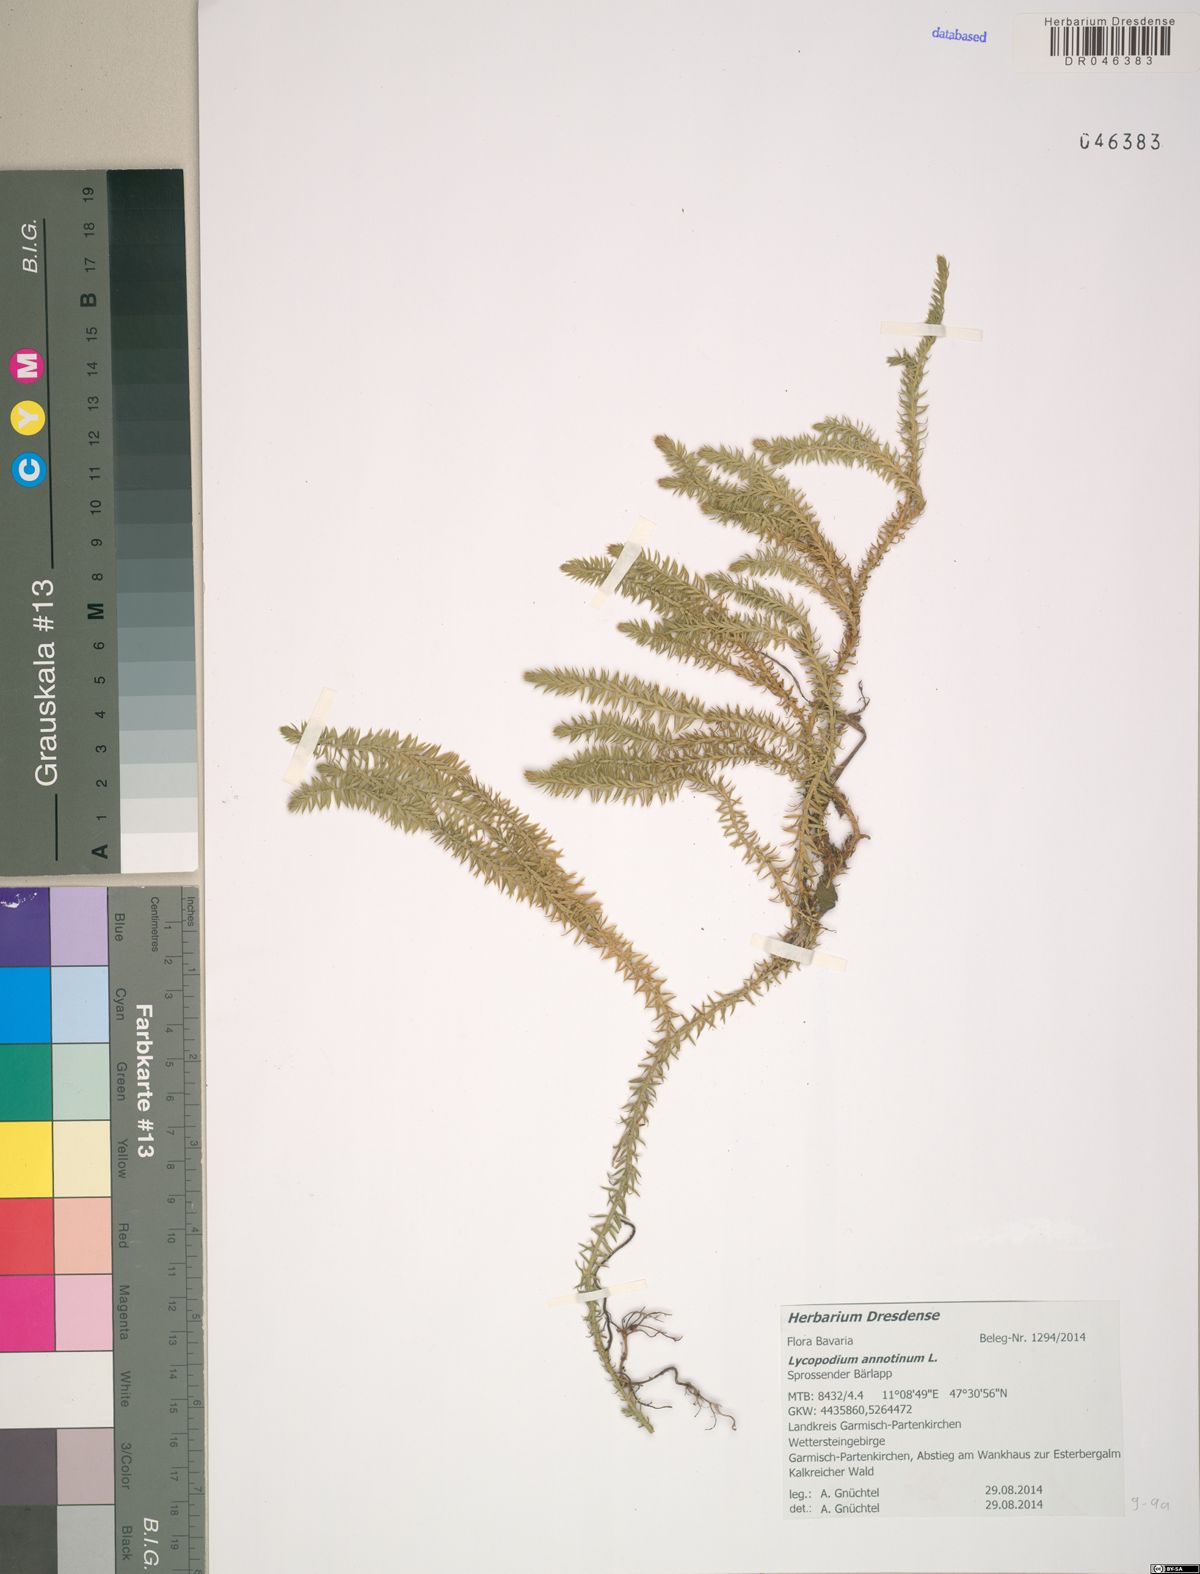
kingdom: Plantae
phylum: Tracheophyta
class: Lycopodiopsida
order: Lycopodiales
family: Lycopodiaceae
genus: Spinulum
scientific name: Spinulum annotinum
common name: Interrupted club-moss
